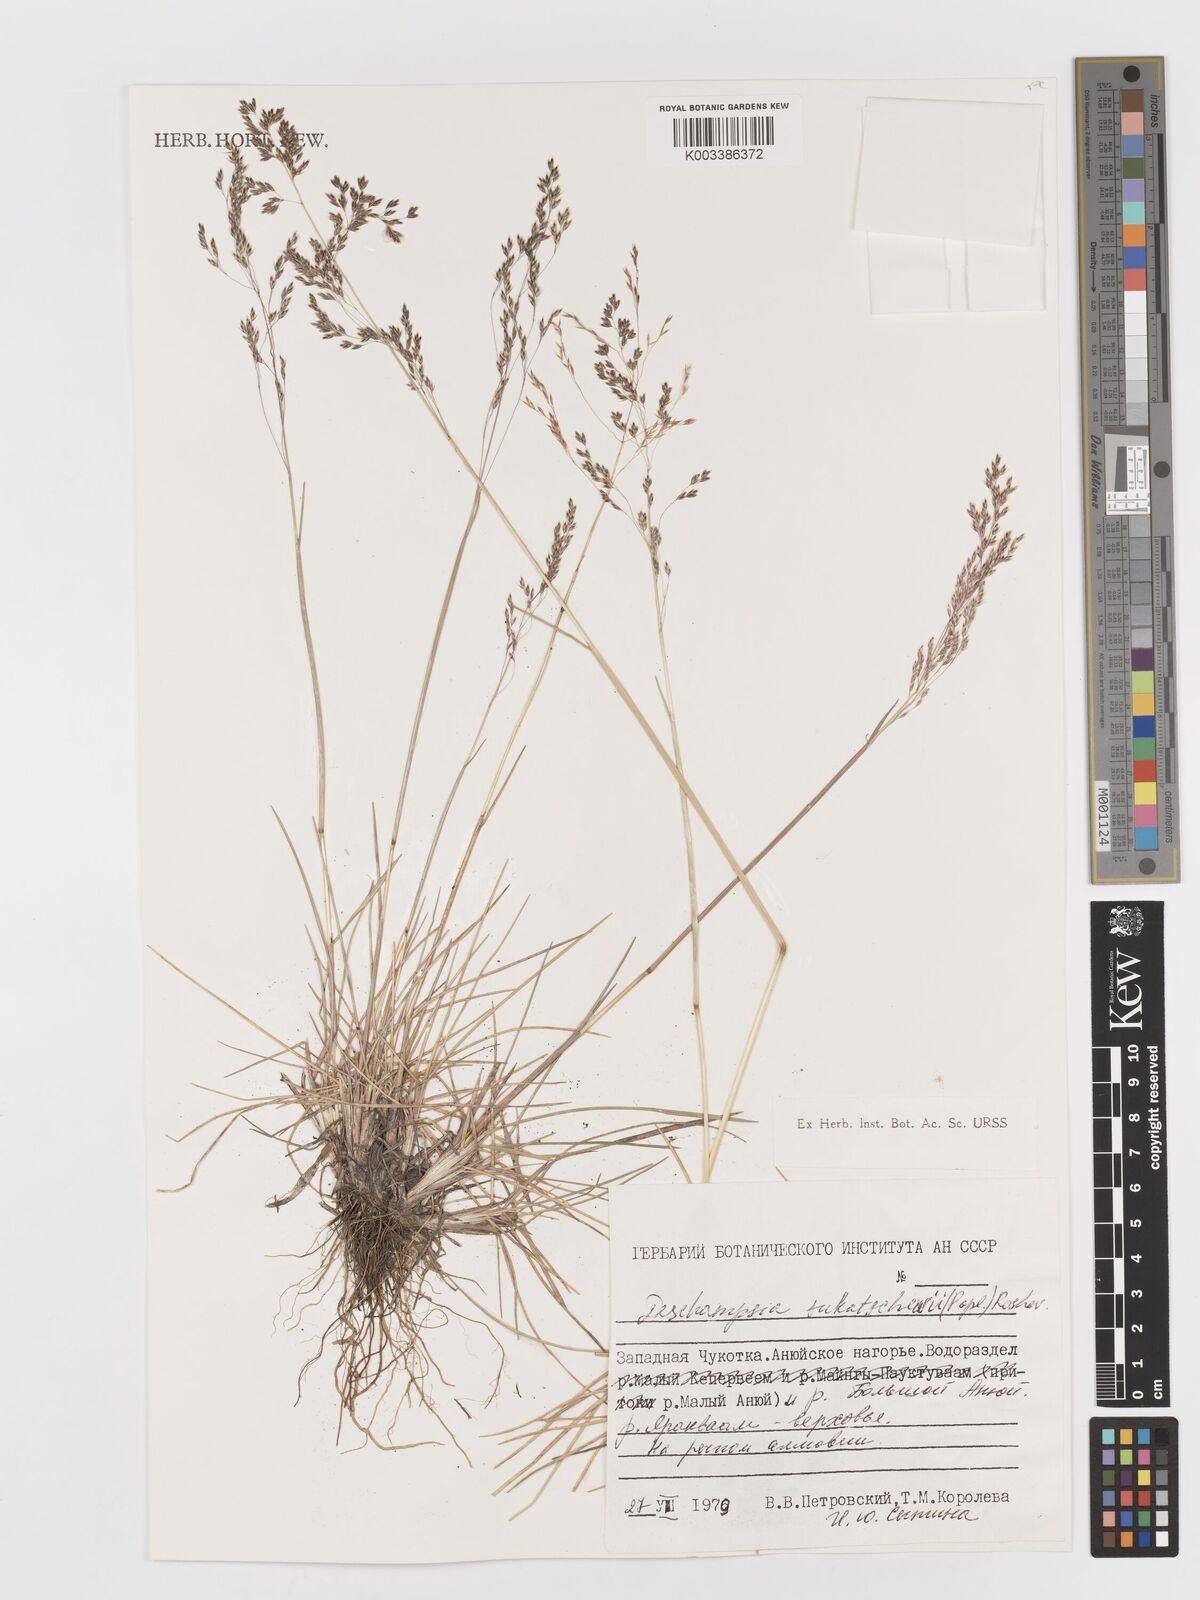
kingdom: Plantae
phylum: Tracheophyta
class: Liliopsida
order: Poales
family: Poaceae
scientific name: Poaceae
